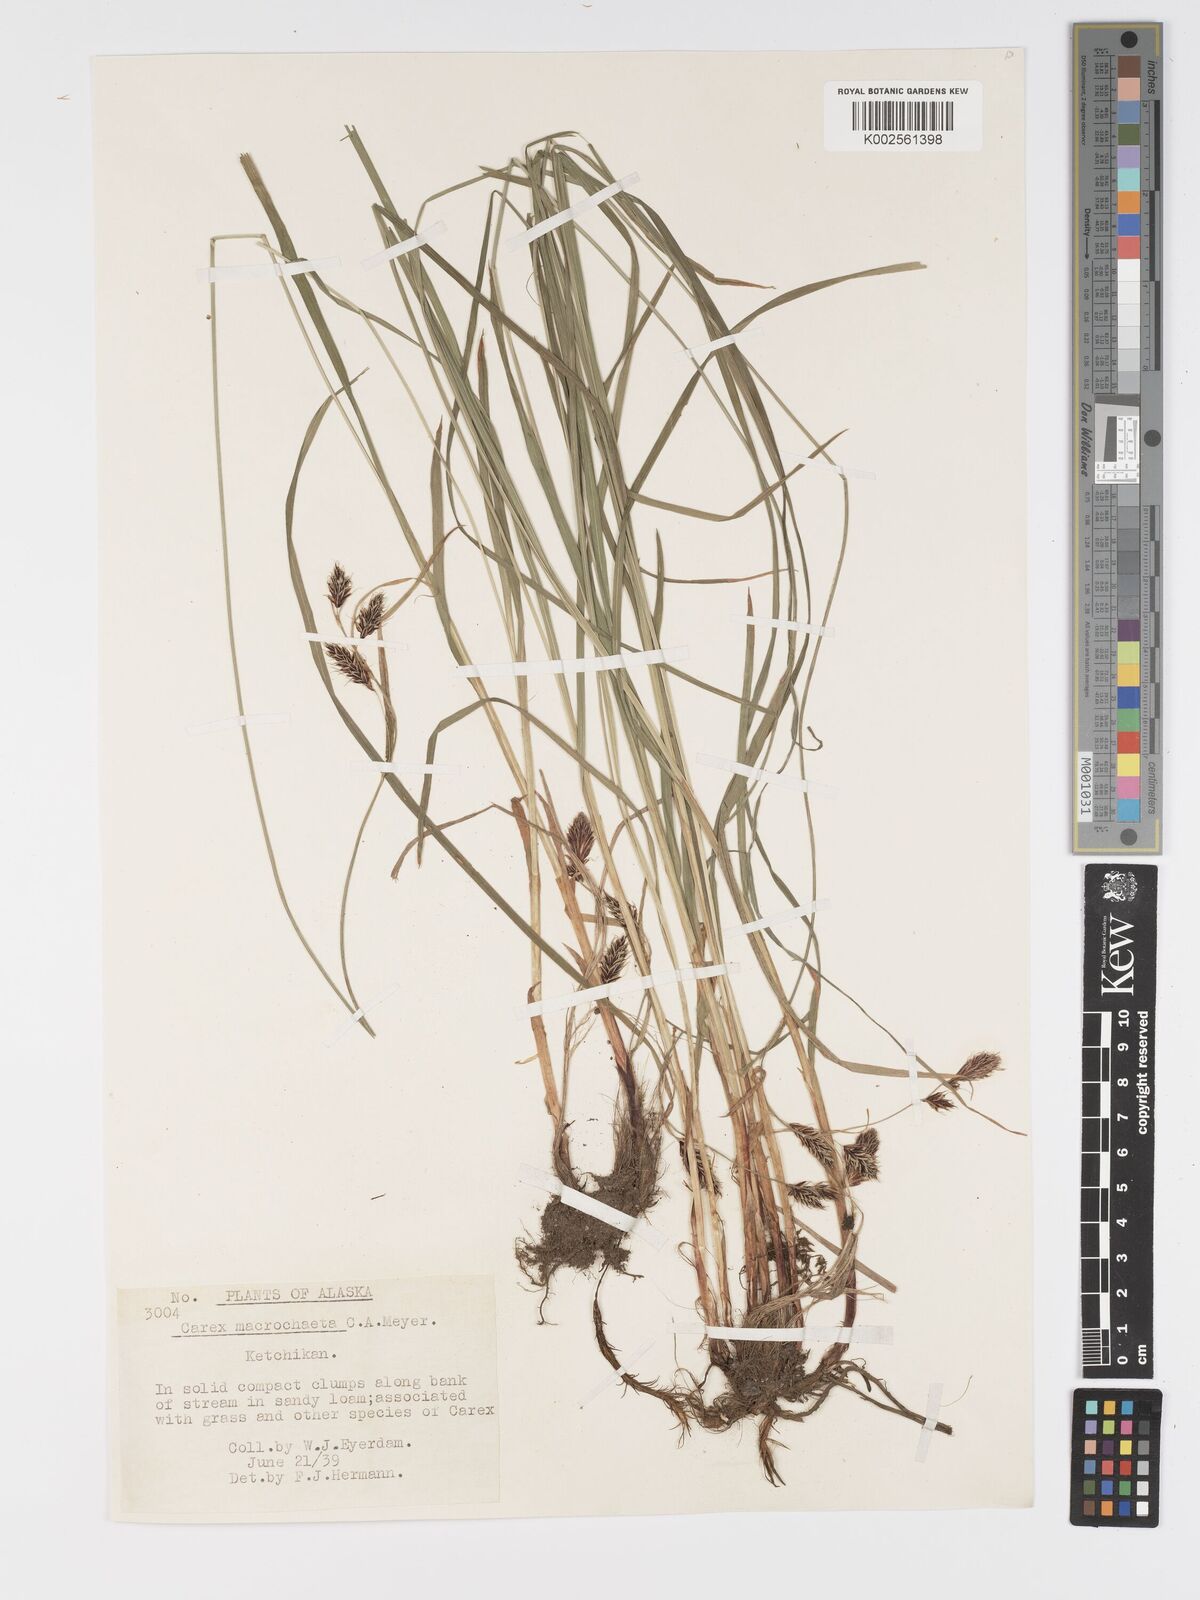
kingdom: Plantae
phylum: Tracheophyta
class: Liliopsida
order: Poales
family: Cyperaceae
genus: Carex
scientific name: Carex macrochaeta
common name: Alaska large awn sedge
